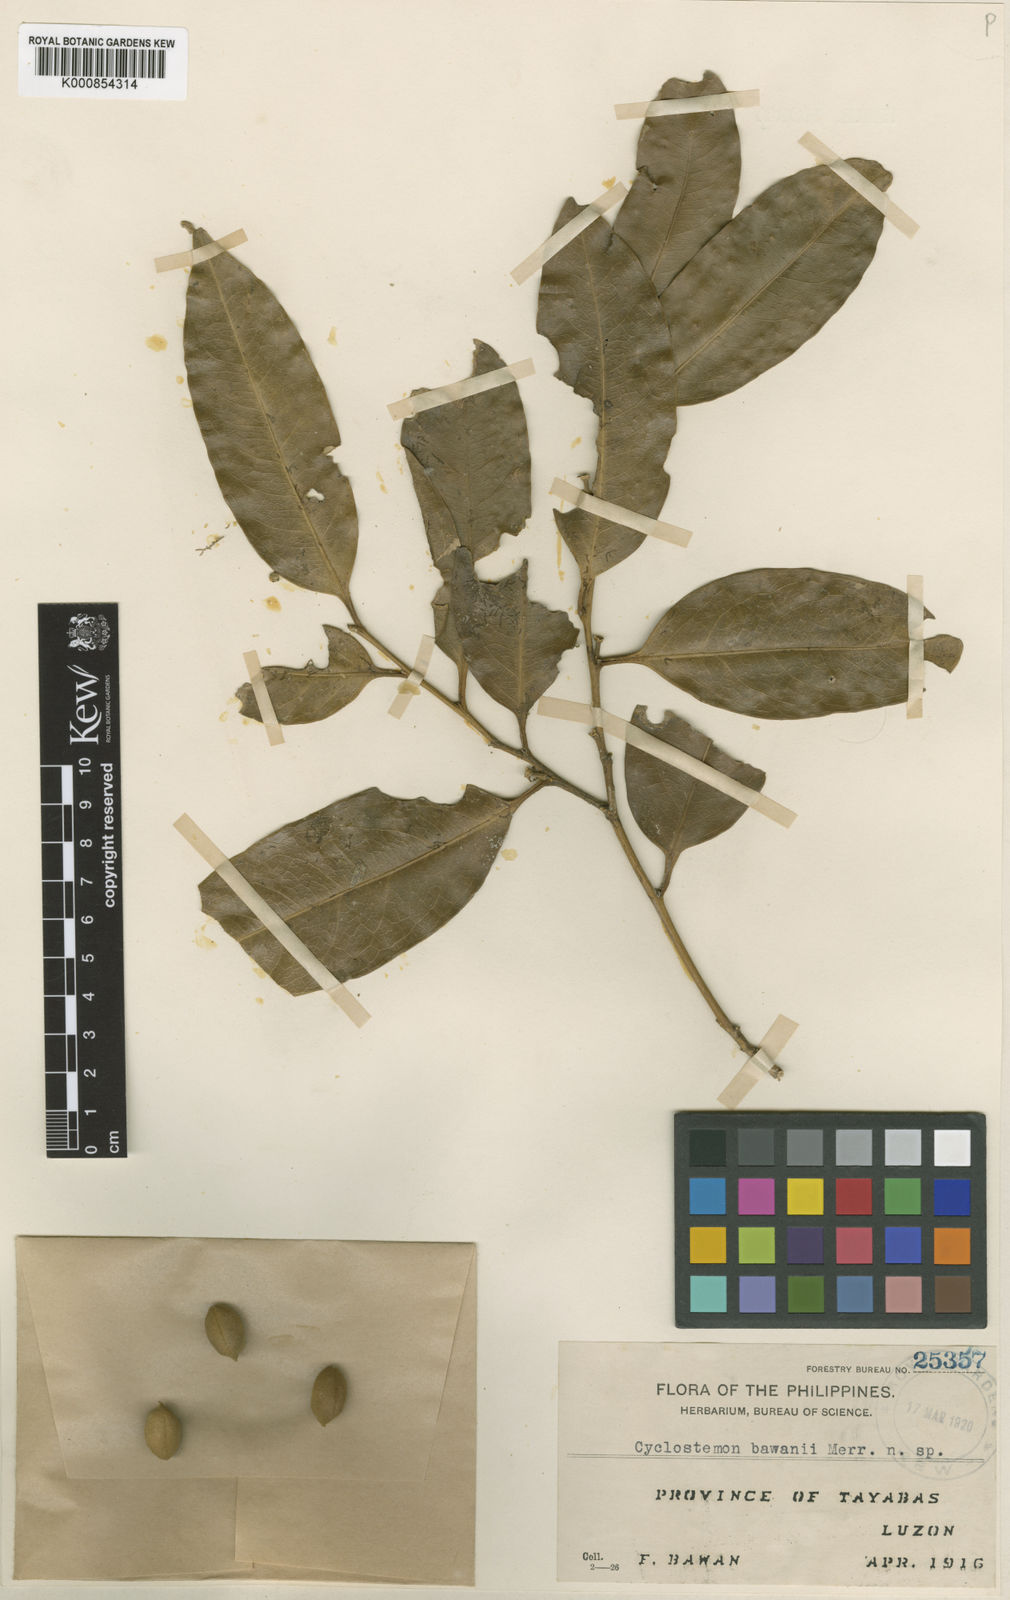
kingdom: Plantae
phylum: Tracheophyta
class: Magnoliopsida
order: Malpighiales
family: Putranjivaceae
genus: Drypetes
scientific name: Drypetes bawanii
